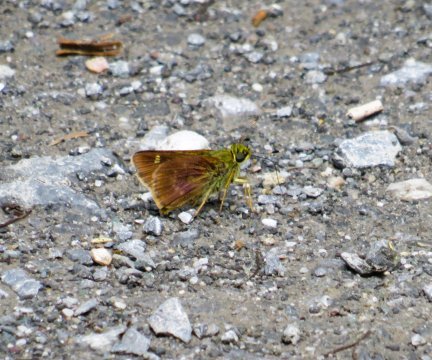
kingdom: Animalia
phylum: Arthropoda
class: Insecta
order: Lepidoptera
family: Hesperiidae
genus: Vernia
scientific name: Vernia verna
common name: Little Glassywing
